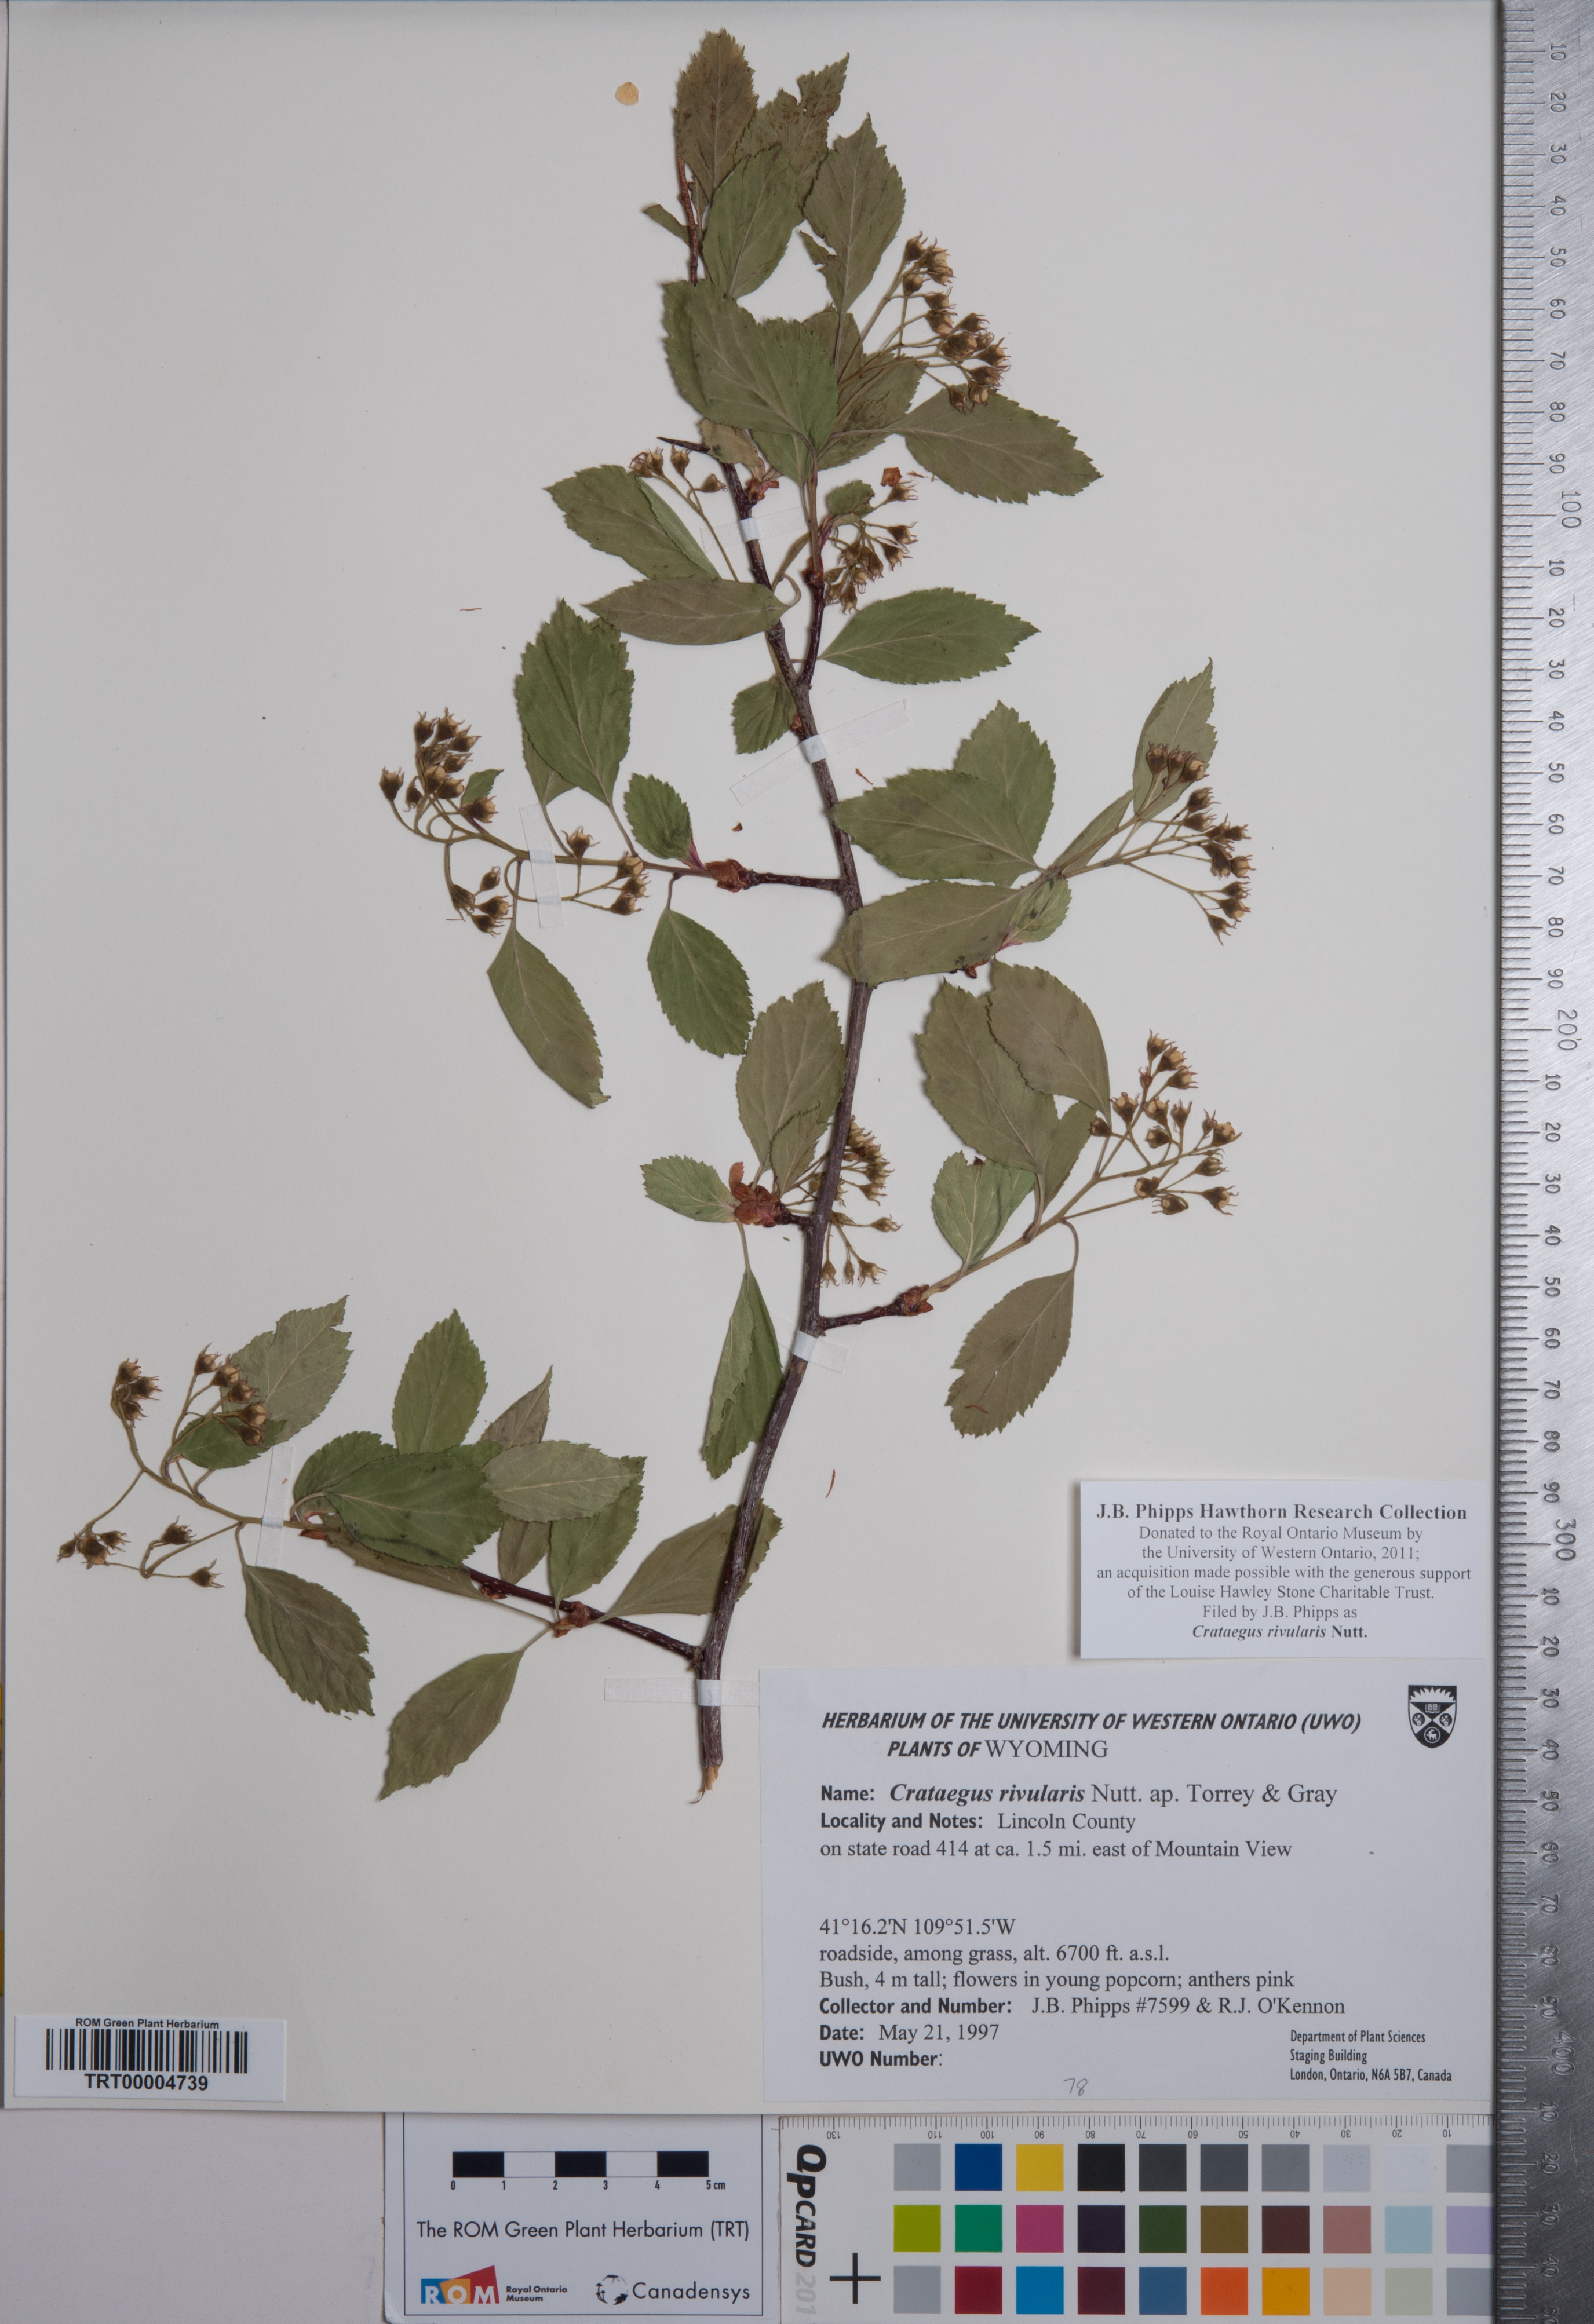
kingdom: Plantae
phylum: Tracheophyta
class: Magnoliopsida
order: Rosales
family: Rosaceae
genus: Crataegus
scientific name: Crataegus rivularis
